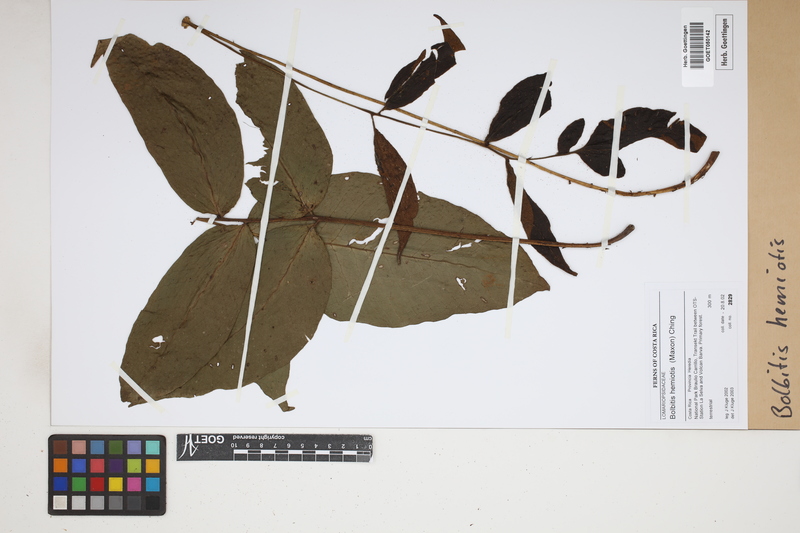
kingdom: Plantae
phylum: Tracheophyta
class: Polypodiopsida
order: Polypodiales
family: Dryopteridaceae
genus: Mickelia
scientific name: Mickelia hemiotis
